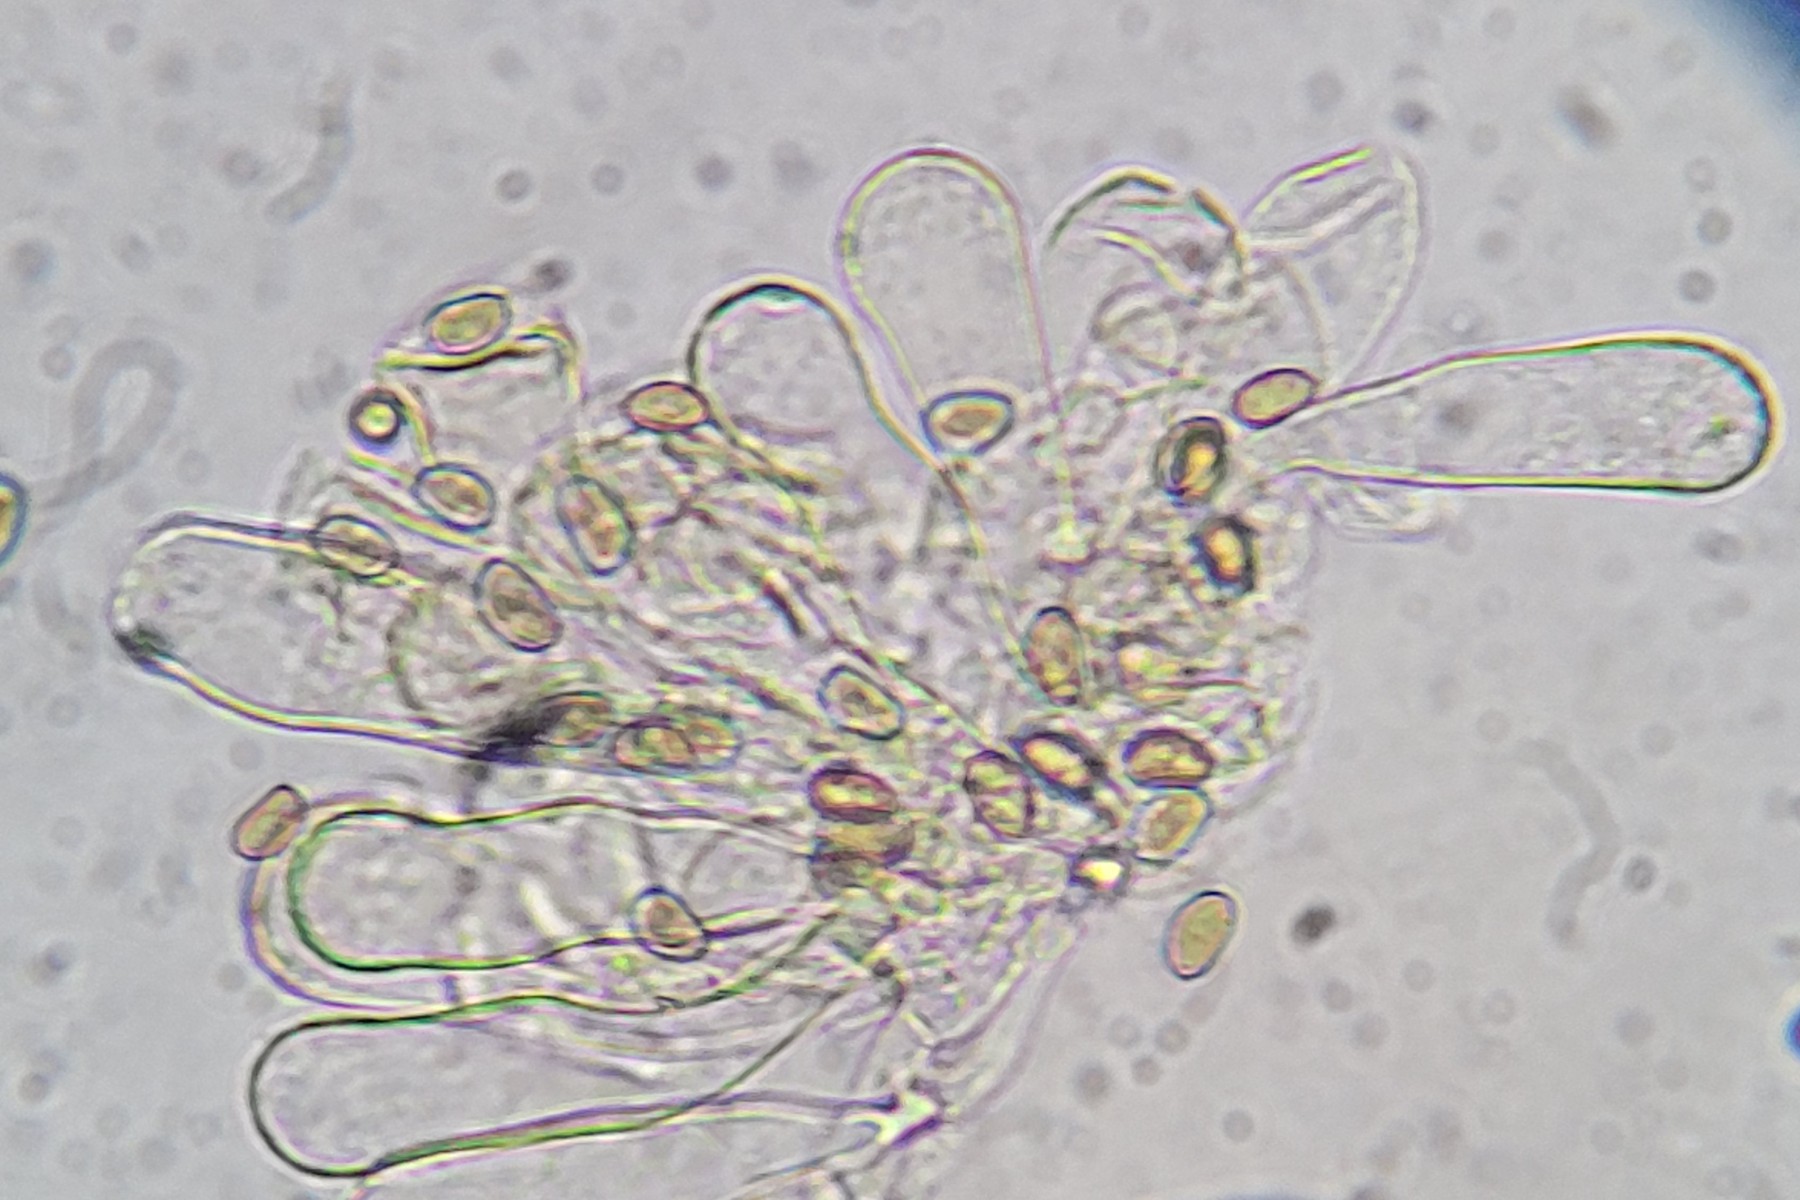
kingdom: Fungi
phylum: Basidiomycota
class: Agaricomycetes
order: Agaricales
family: Inocybaceae
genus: Inosperma
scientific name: Inosperma
